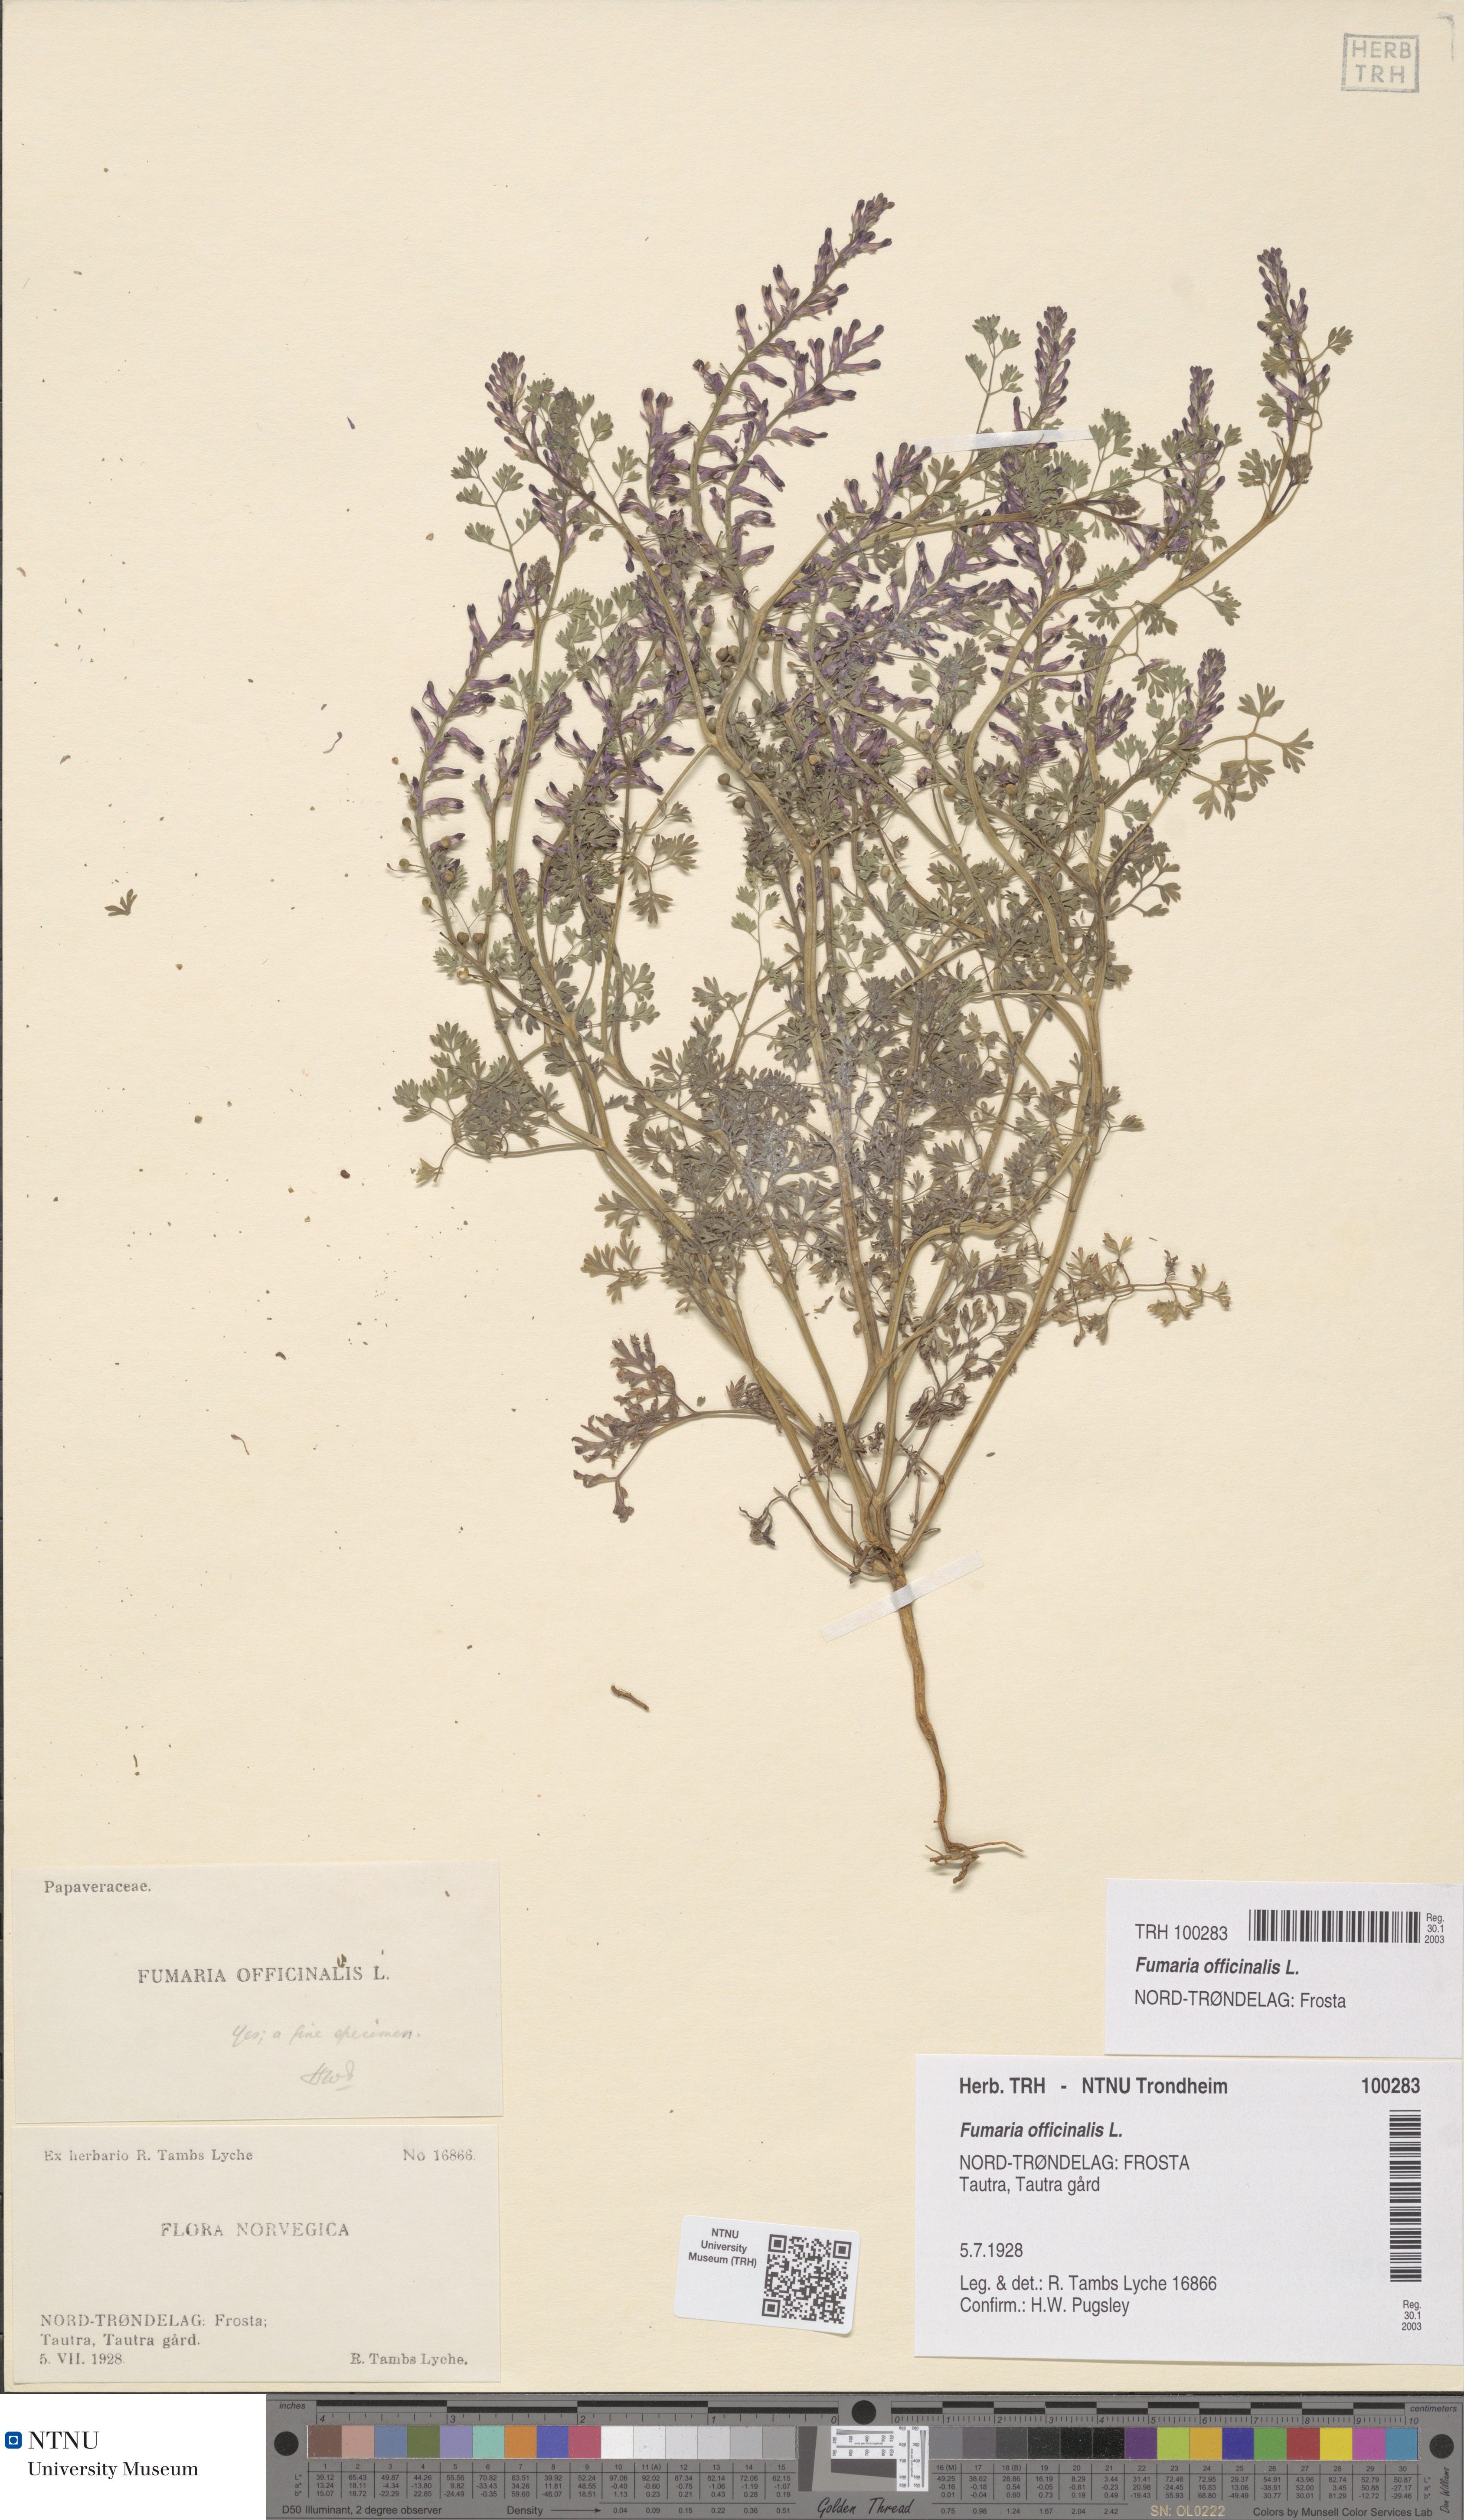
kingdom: Plantae
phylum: Tracheophyta
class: Magnoliopsida
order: Ranunculales
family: Papaveraceae
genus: Fumaria
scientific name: Fumaria officinalis
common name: Common fumitory
